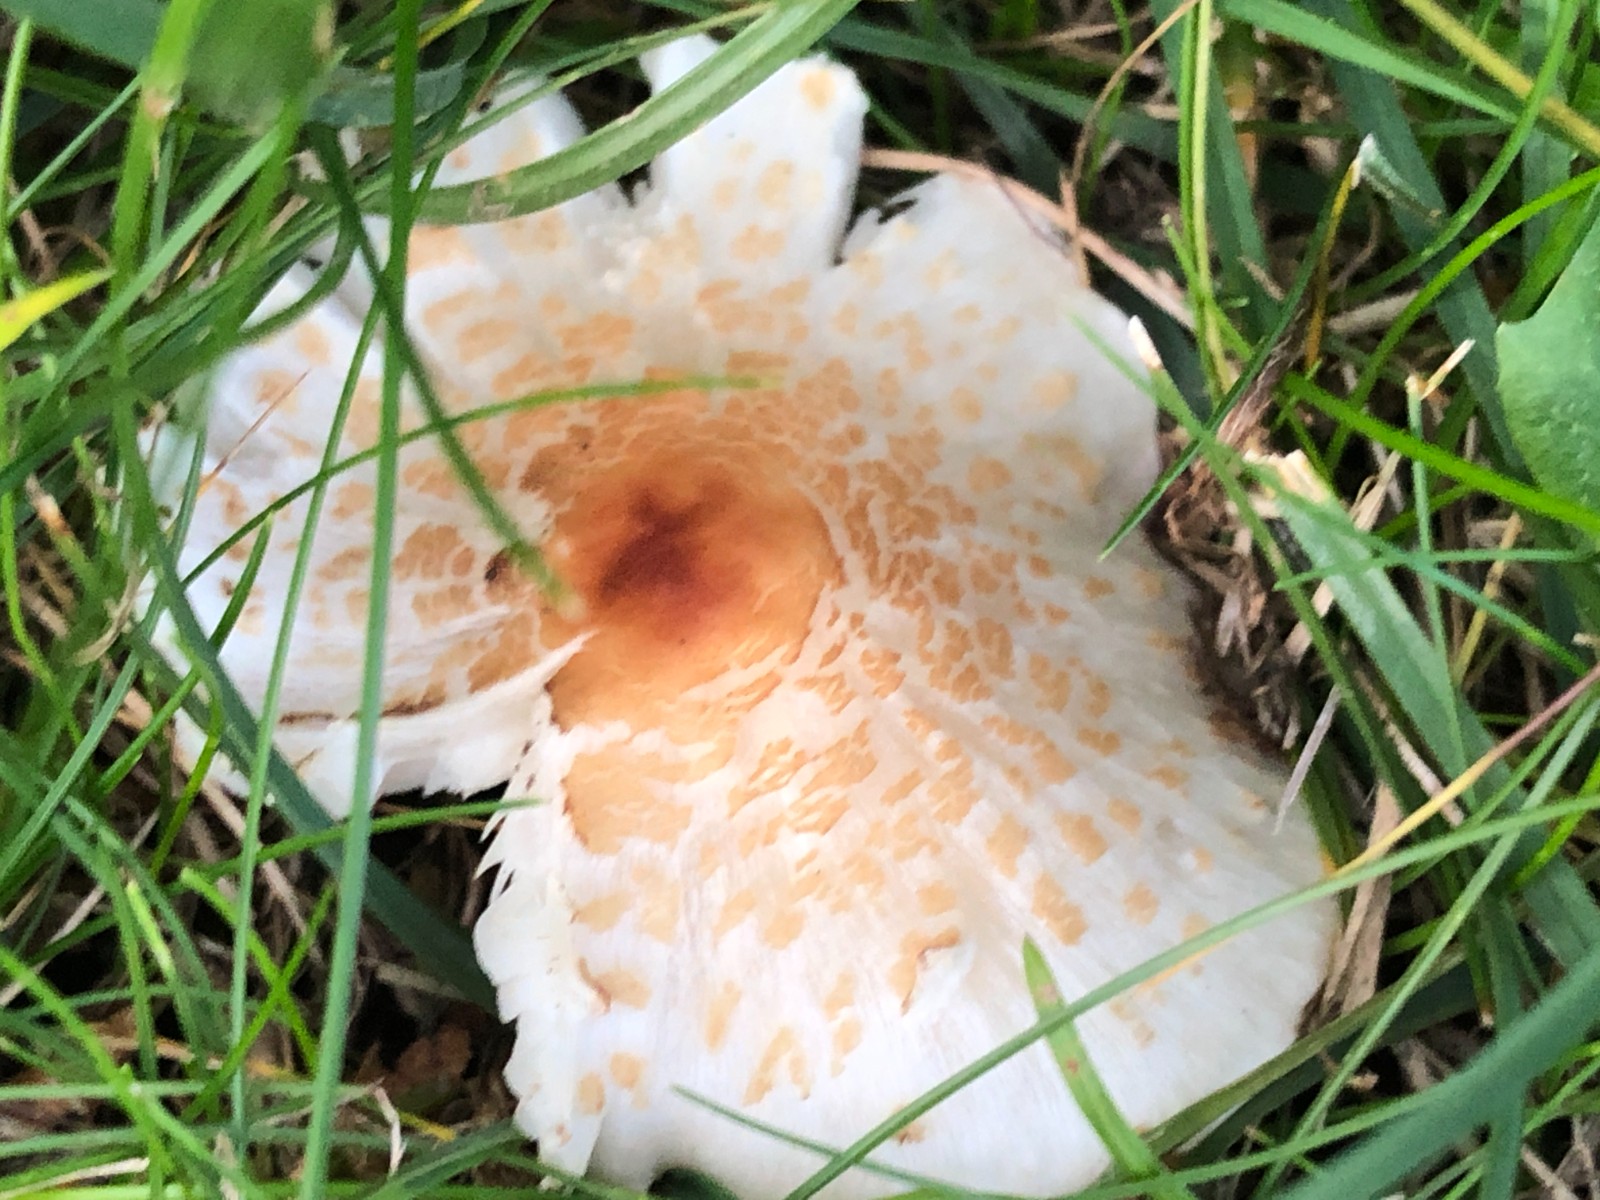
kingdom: Fungi
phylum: Basidiomycota
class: Agaricomycetes
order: Agaricales
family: Agaricaceae
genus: Lepiota
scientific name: Lepiota cristata
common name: stinkende parasolhat
